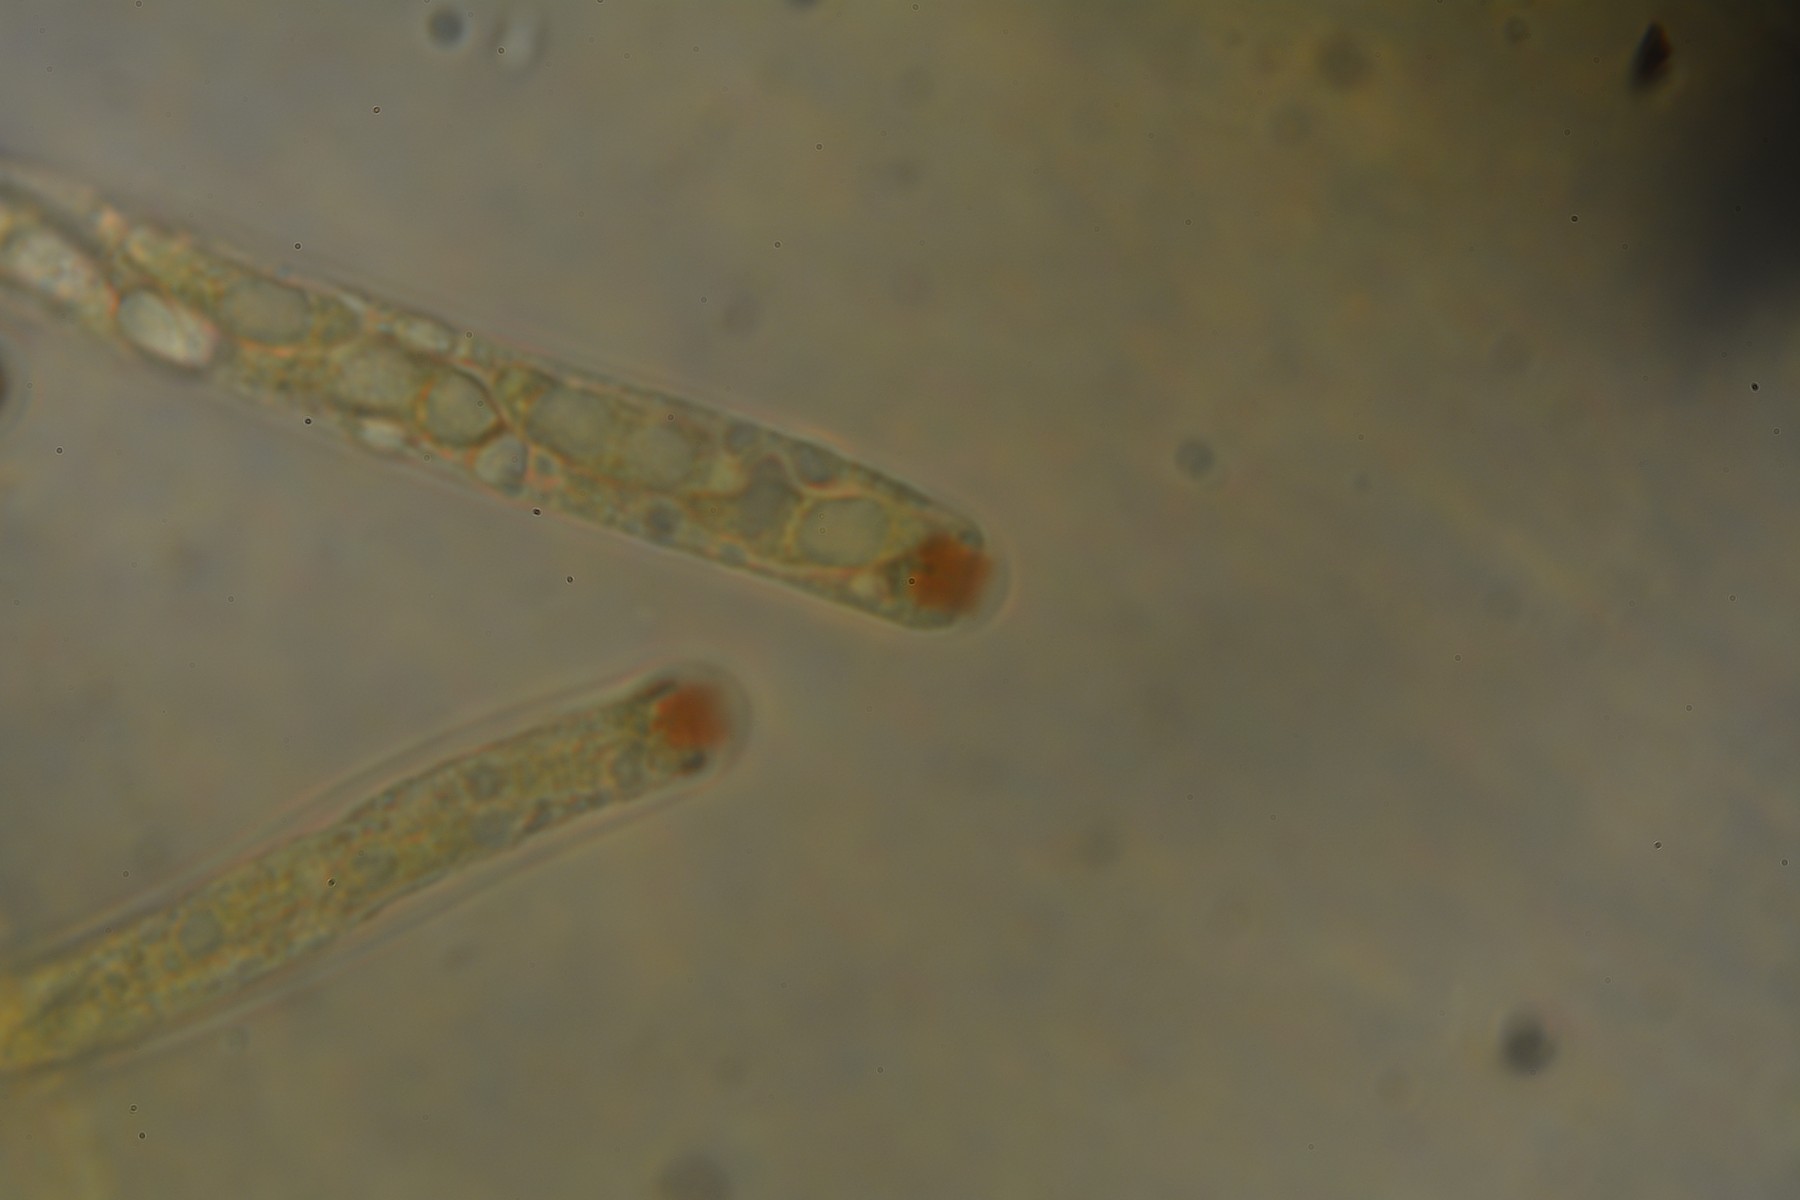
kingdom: Fungi
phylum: Ascomycota
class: Sordariomycetes
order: Xylariales
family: Xylariaceae
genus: Nemania
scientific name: Nemania serpens
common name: almindelig kuldyne
